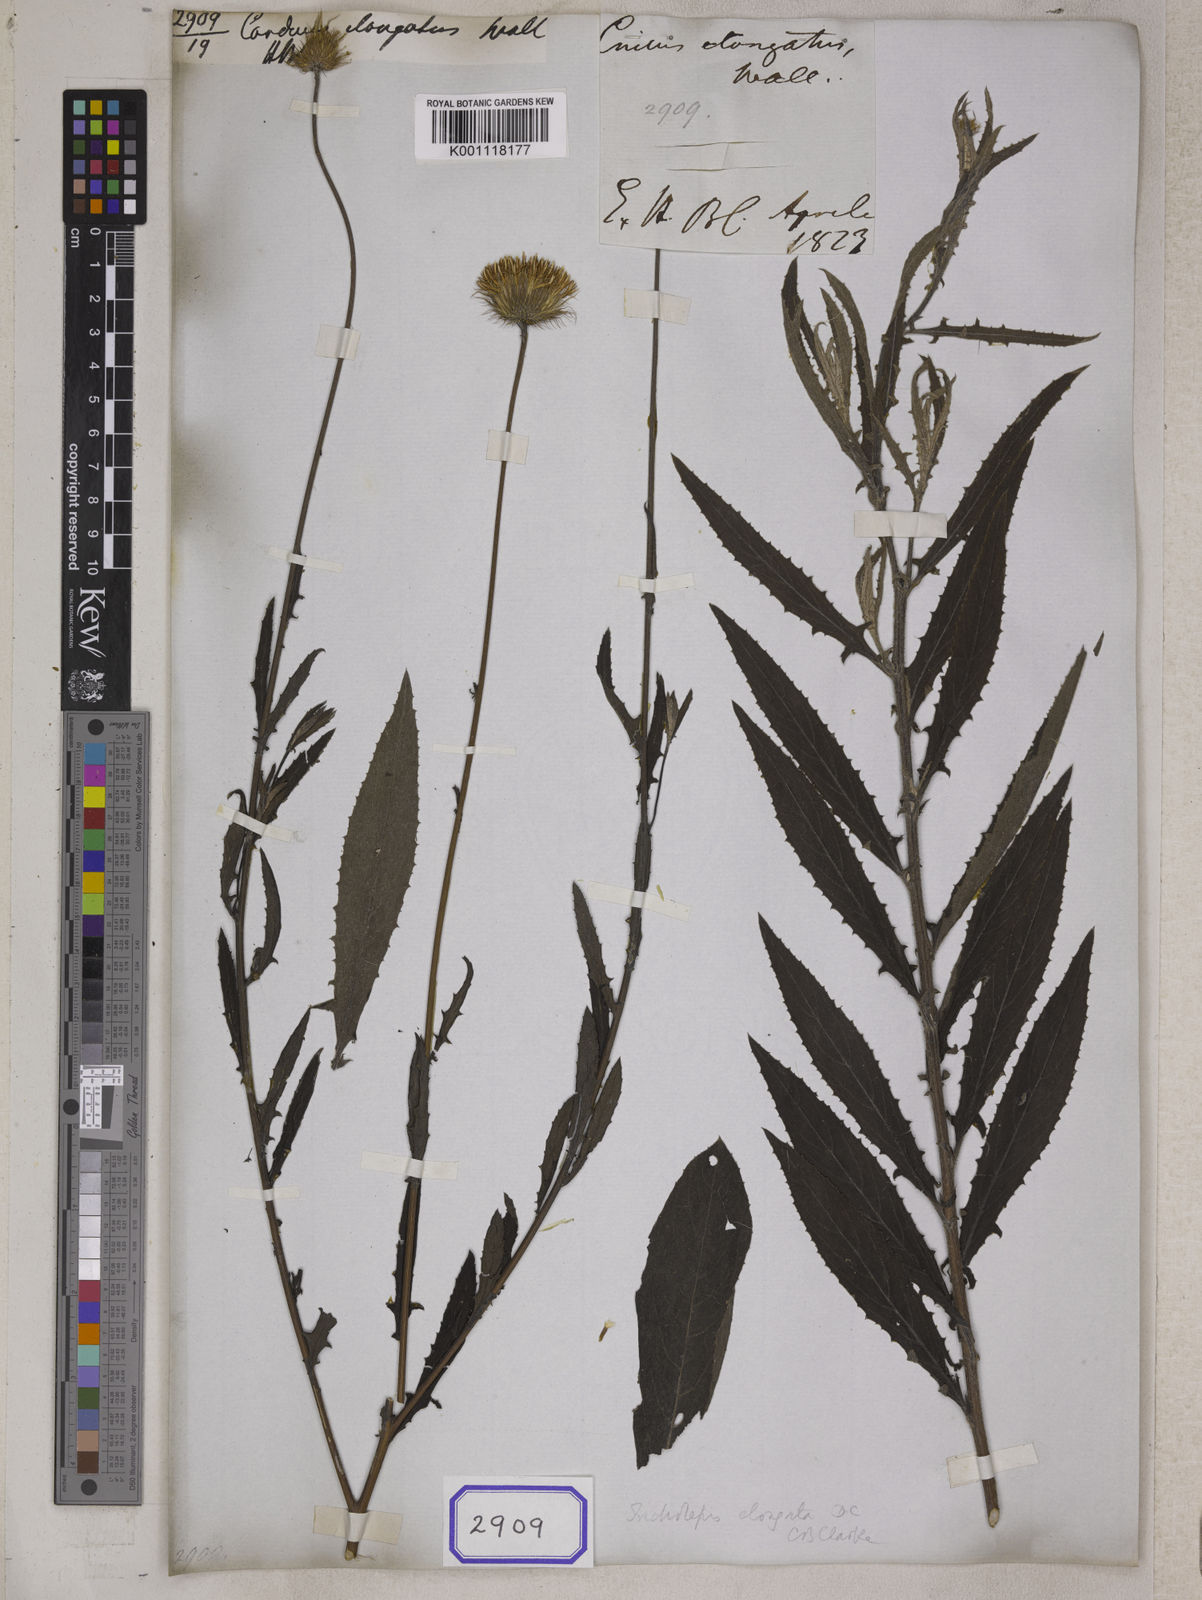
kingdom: Plantae
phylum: Tracheophyta
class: Magnoliopsida
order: Asterales
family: Asteraceae
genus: Tricholepis
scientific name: Tricholepis elongata
